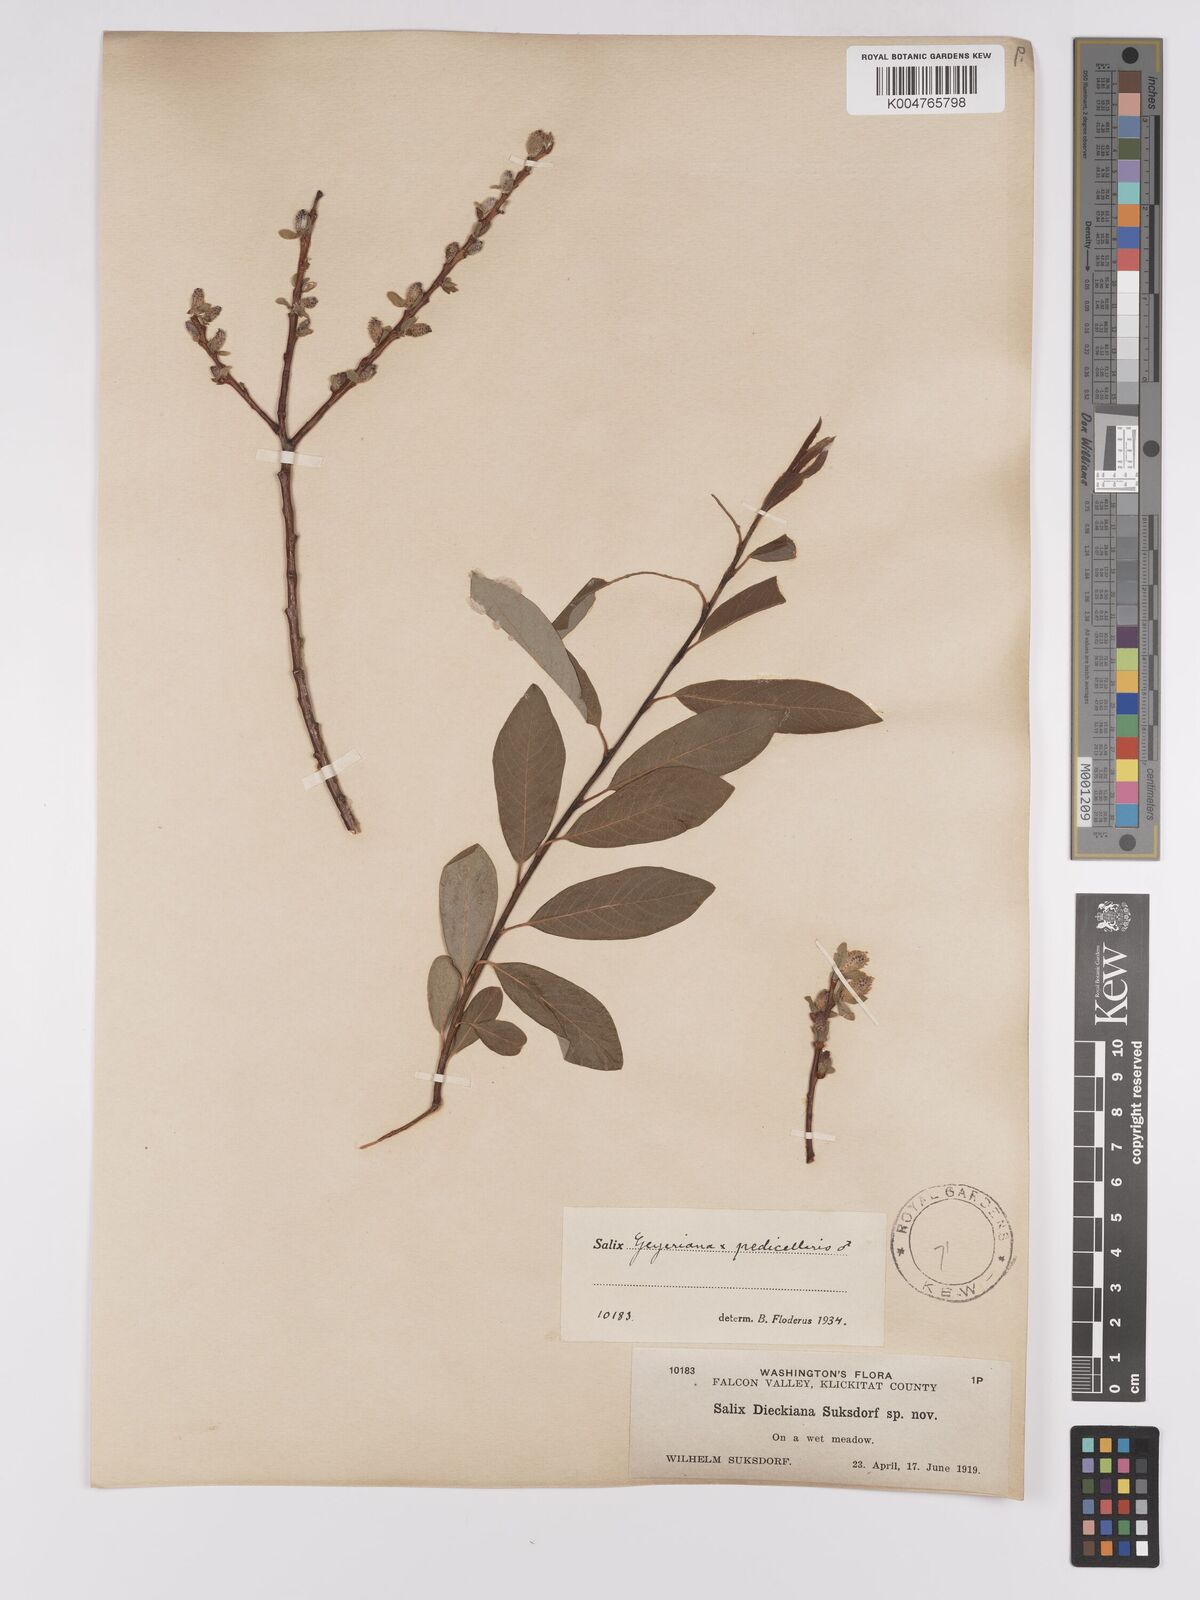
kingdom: Plantae
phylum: Tracheophyta
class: Magnoliopsida
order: Malpighiales
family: Salicaceae
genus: Salix
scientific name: Salix geyeriana
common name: Geyer's willow
